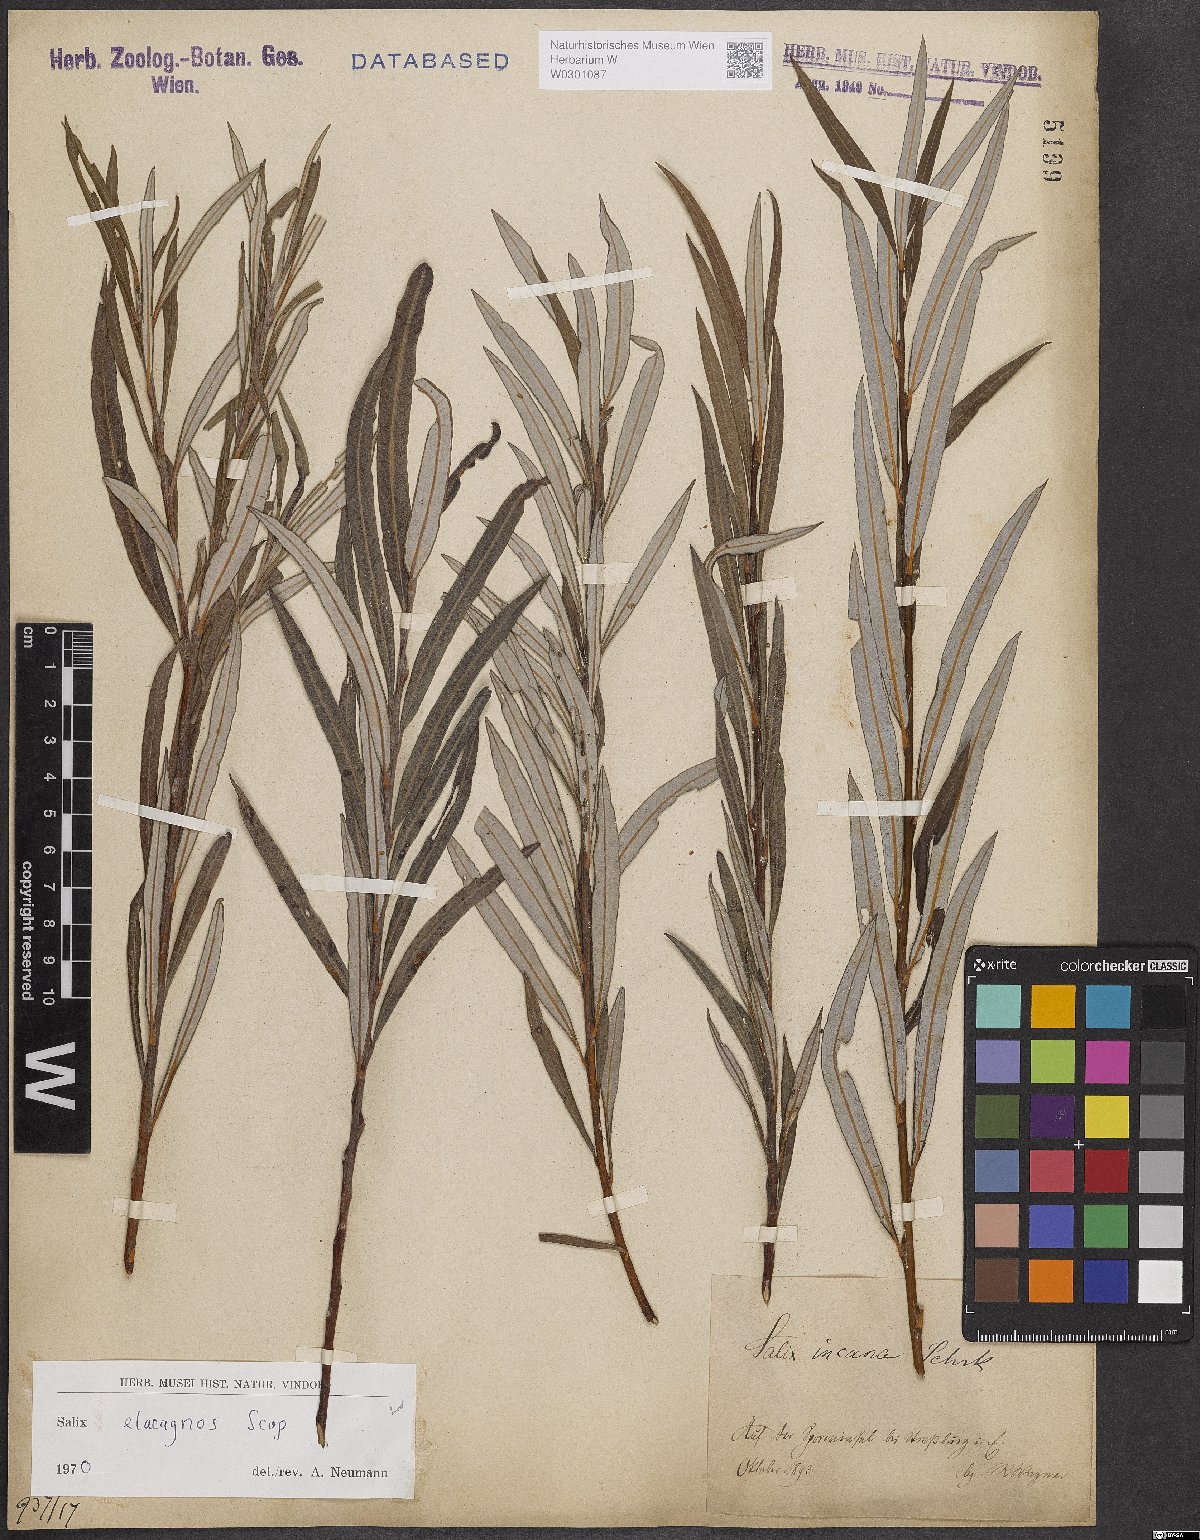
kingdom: Plantae
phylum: Tracheophyta
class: Magnoliopsida
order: Malpighiales
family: Salicaceae
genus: Salix
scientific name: Salix eleagnos
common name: Elaeagnus willow
